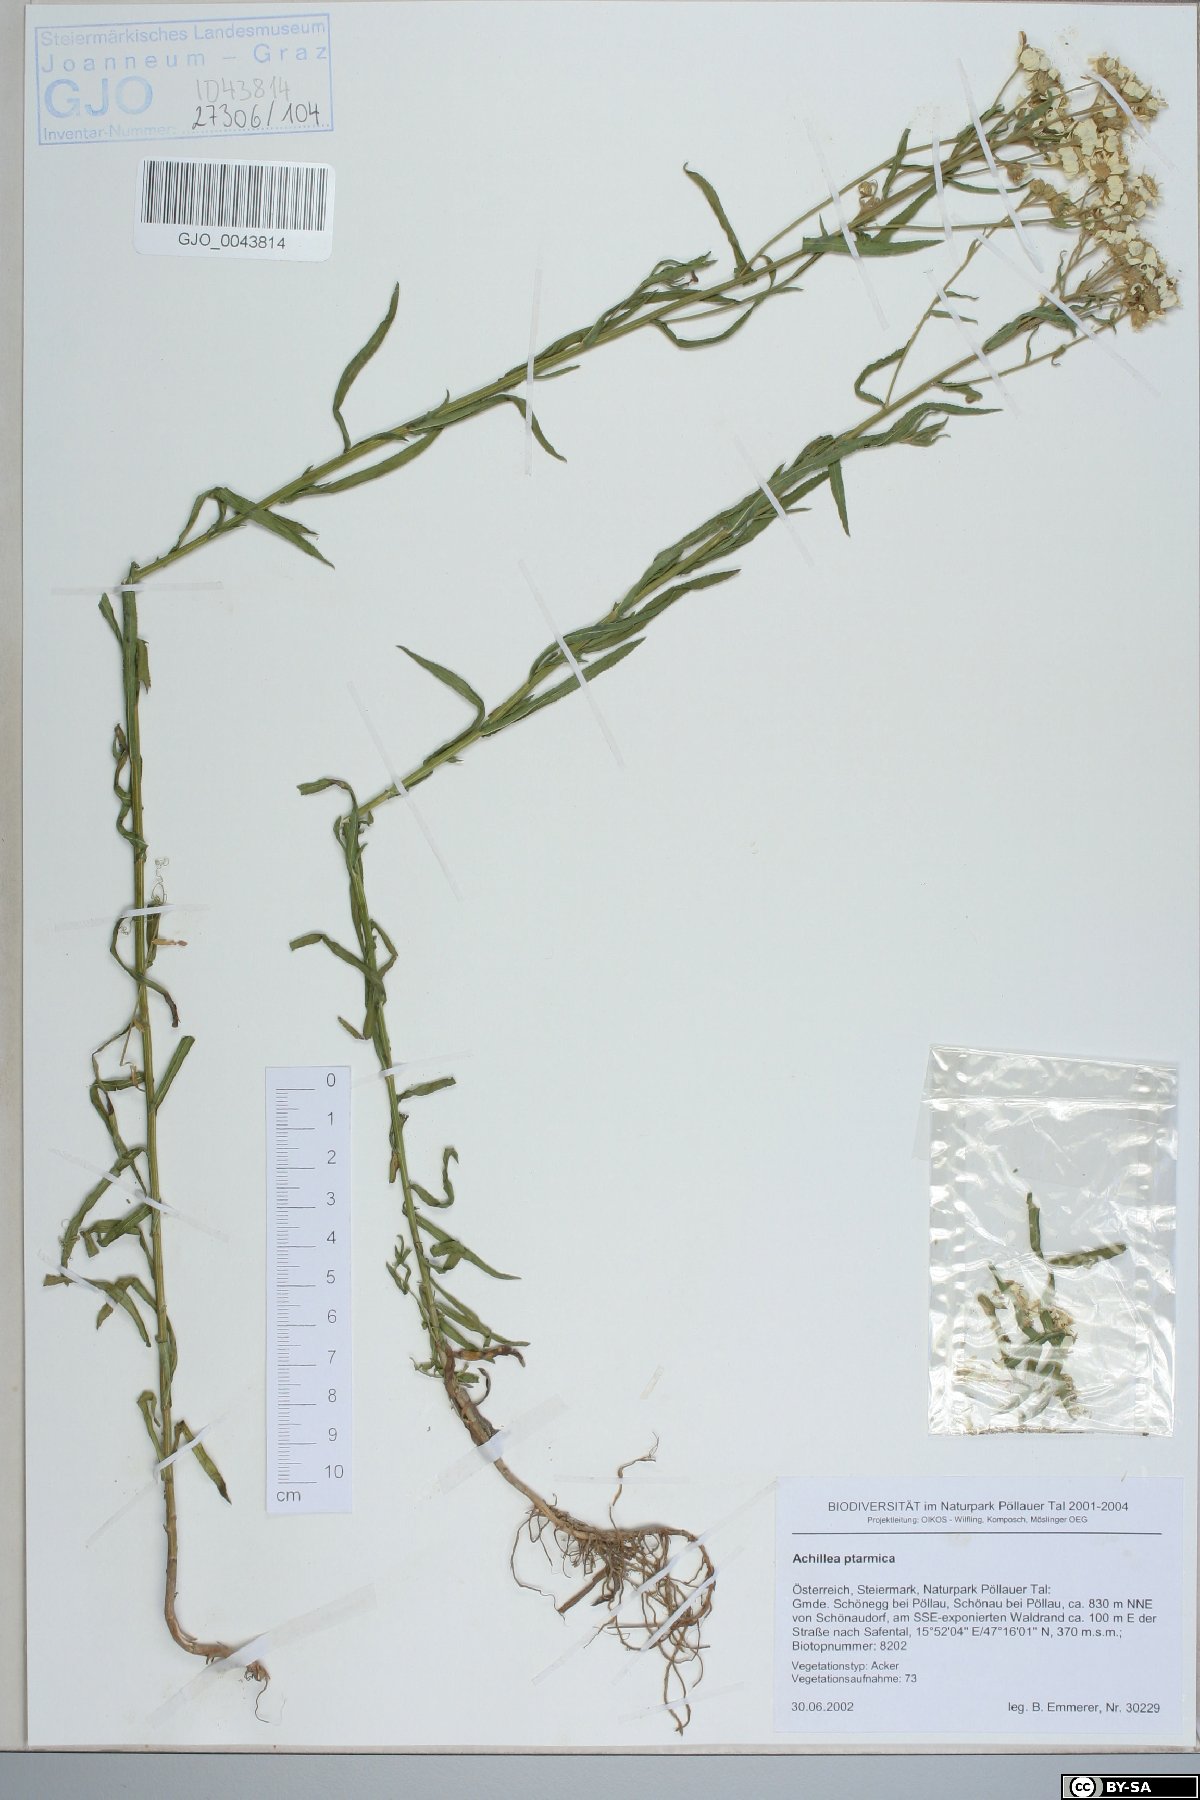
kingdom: Plantae
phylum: Tracheophyta
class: Magnoliopsida
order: Asterales
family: Asteraceae
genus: Achillea
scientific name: Achillea ptarmica
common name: Sneezeweed
